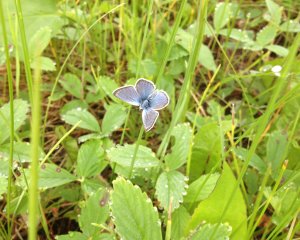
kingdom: Animalia
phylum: Arthropoda
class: Insecta
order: Lepidoptera
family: Lycaenidae
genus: Plebejus
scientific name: Plebejus saepiolus
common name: Greenish Blue
